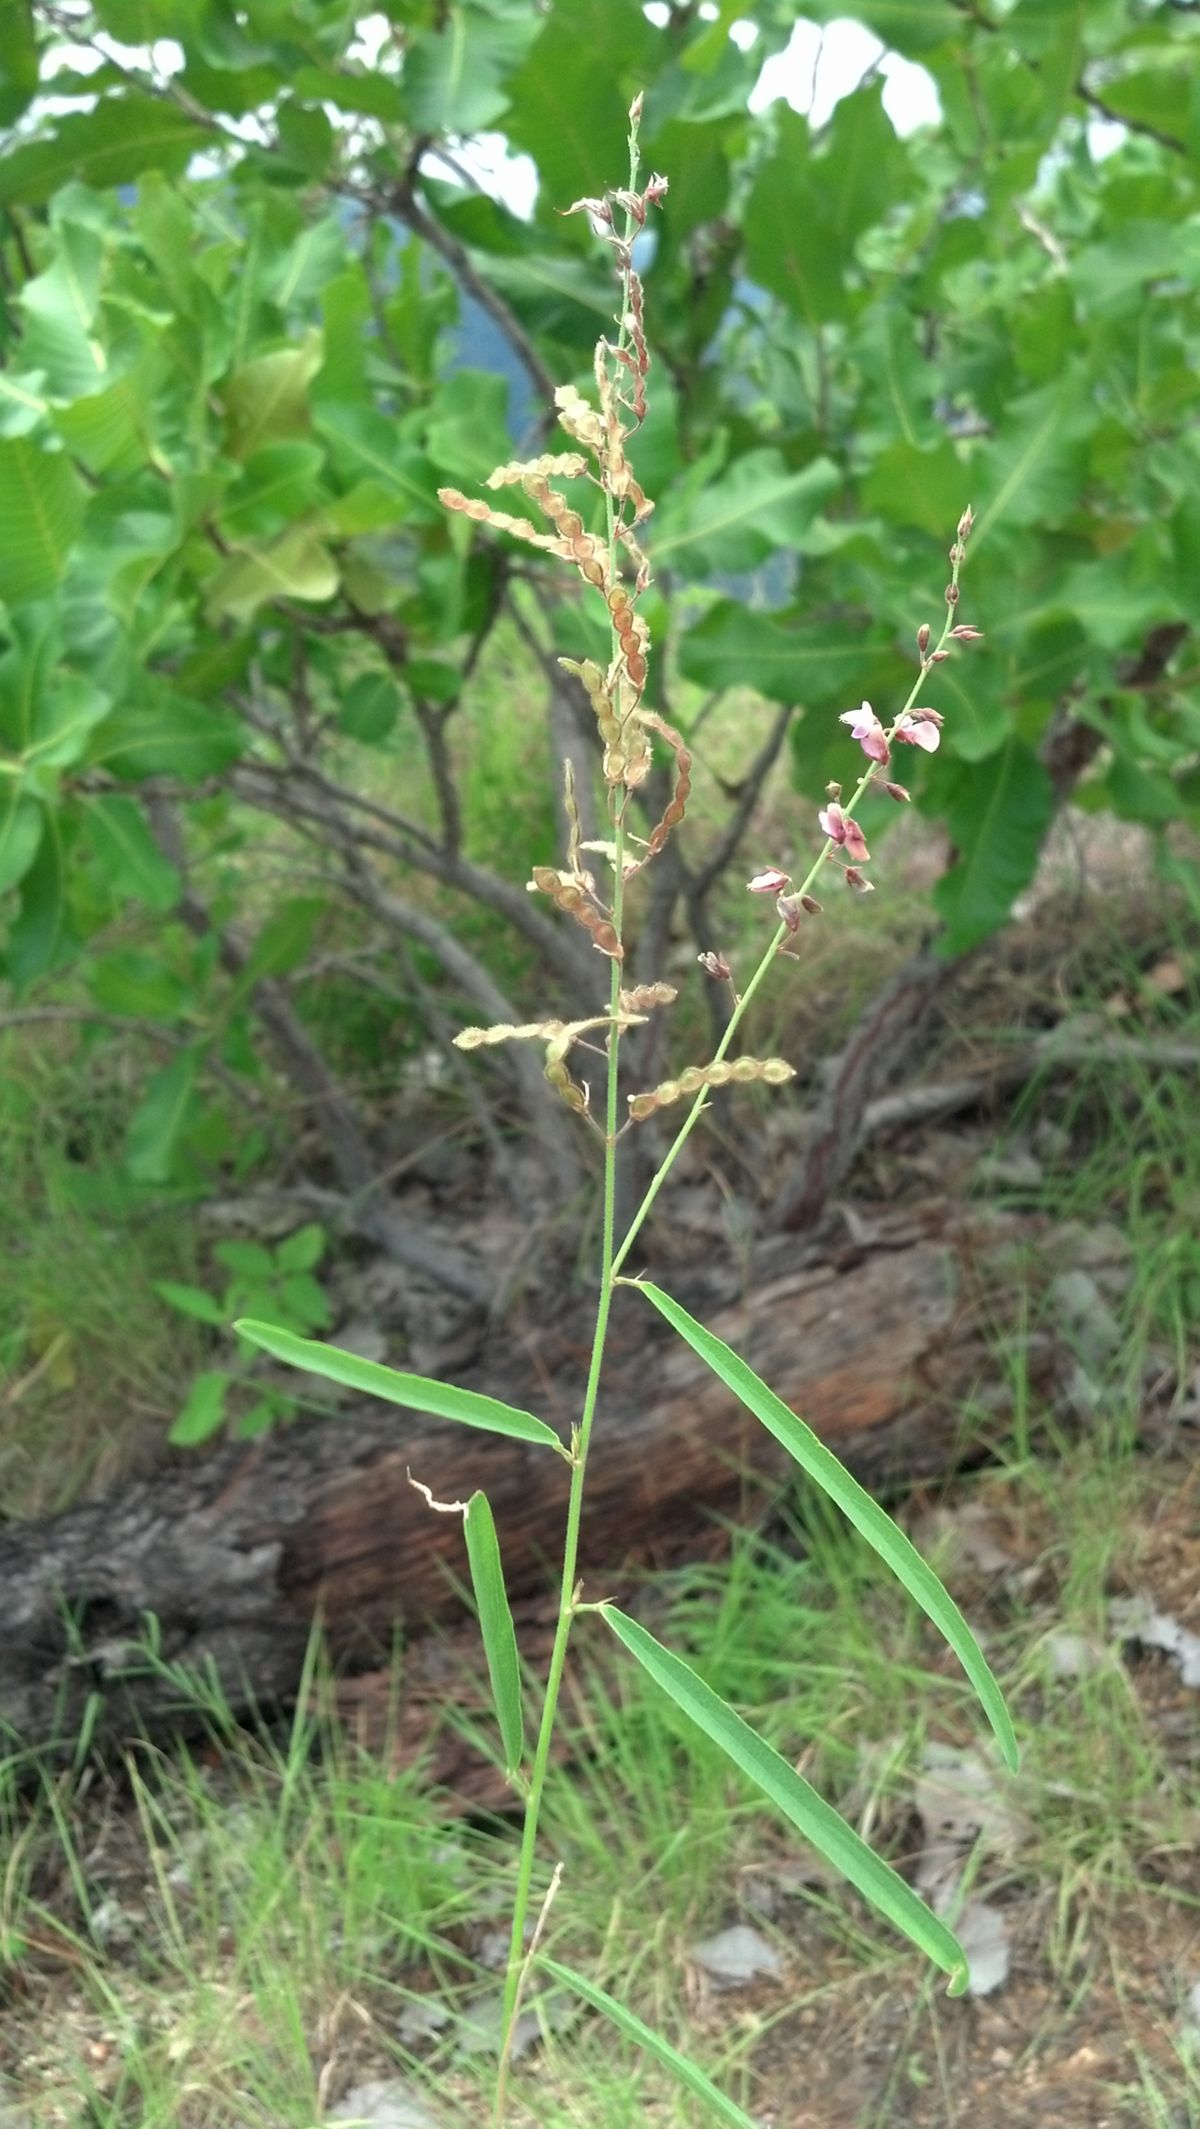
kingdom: Plantae
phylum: Tracheophyta
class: Magnoliopsida
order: Fabales
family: Fabaceae
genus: Desmodium
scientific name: Desmodium angustifolium
